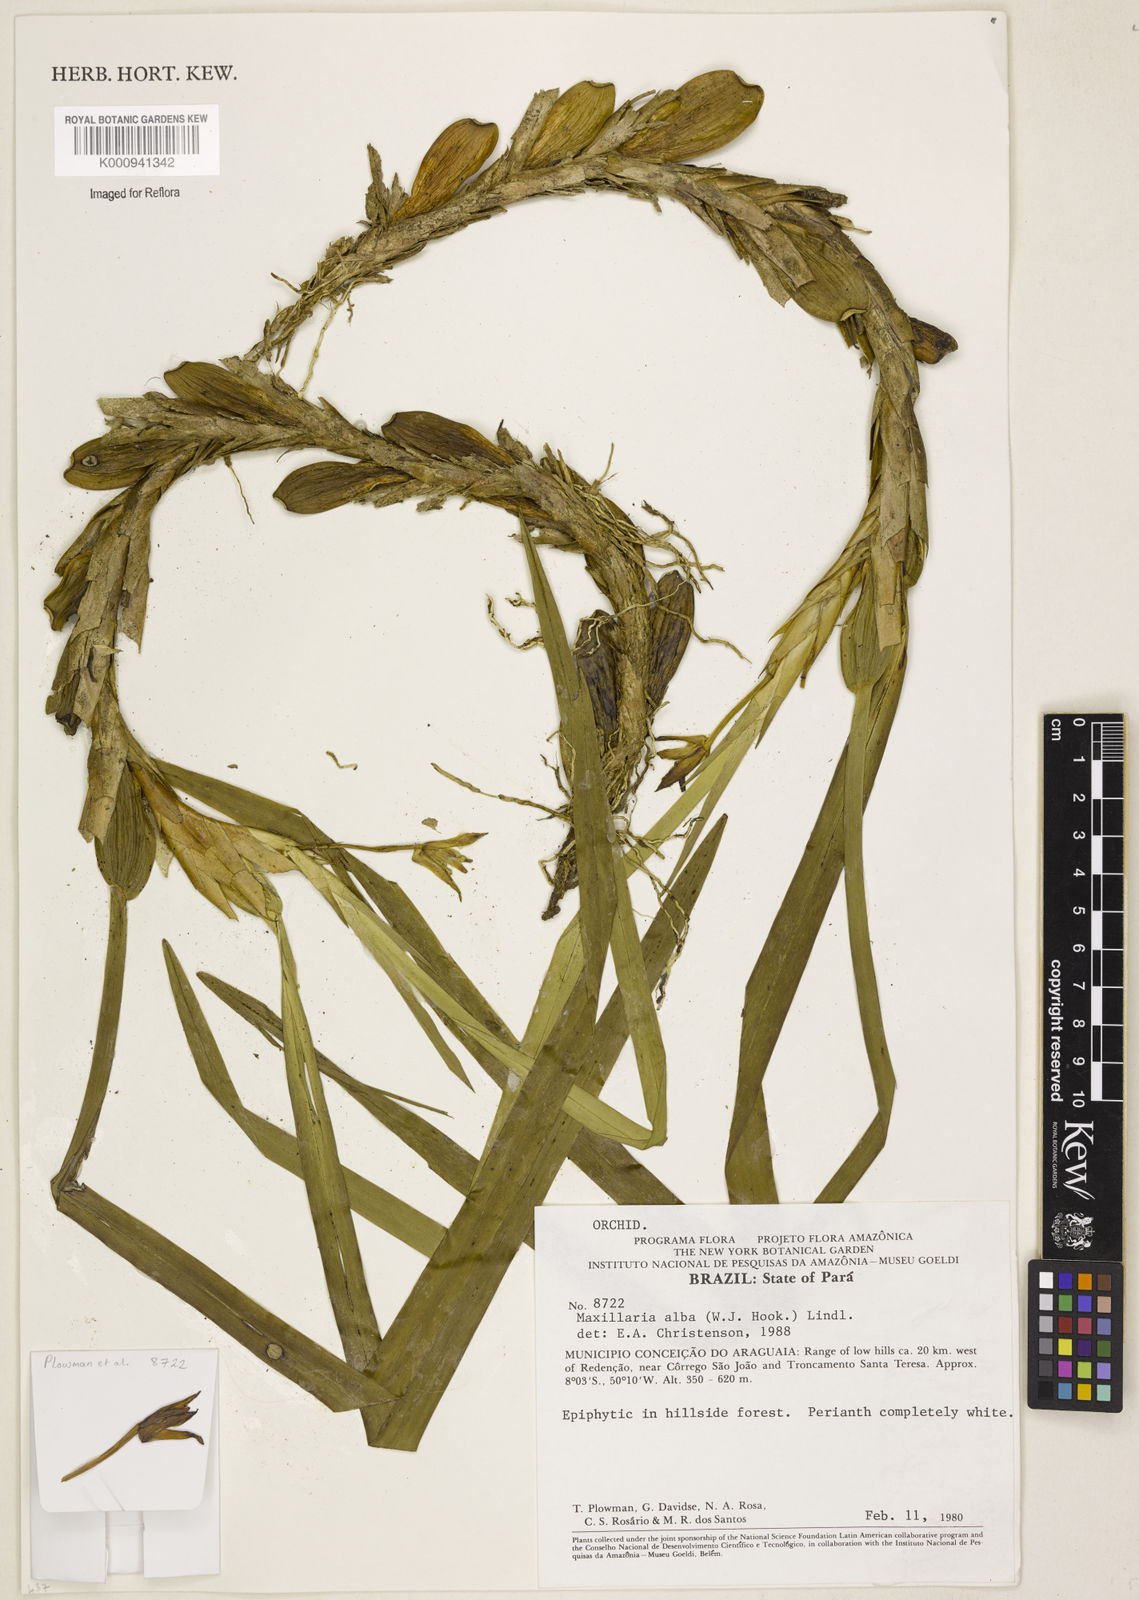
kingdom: Plantae
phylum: Tracheophyta
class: Liliopsida
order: Asparagales
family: Orchidaceae
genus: Maxillaria
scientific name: Maxillaria alba
